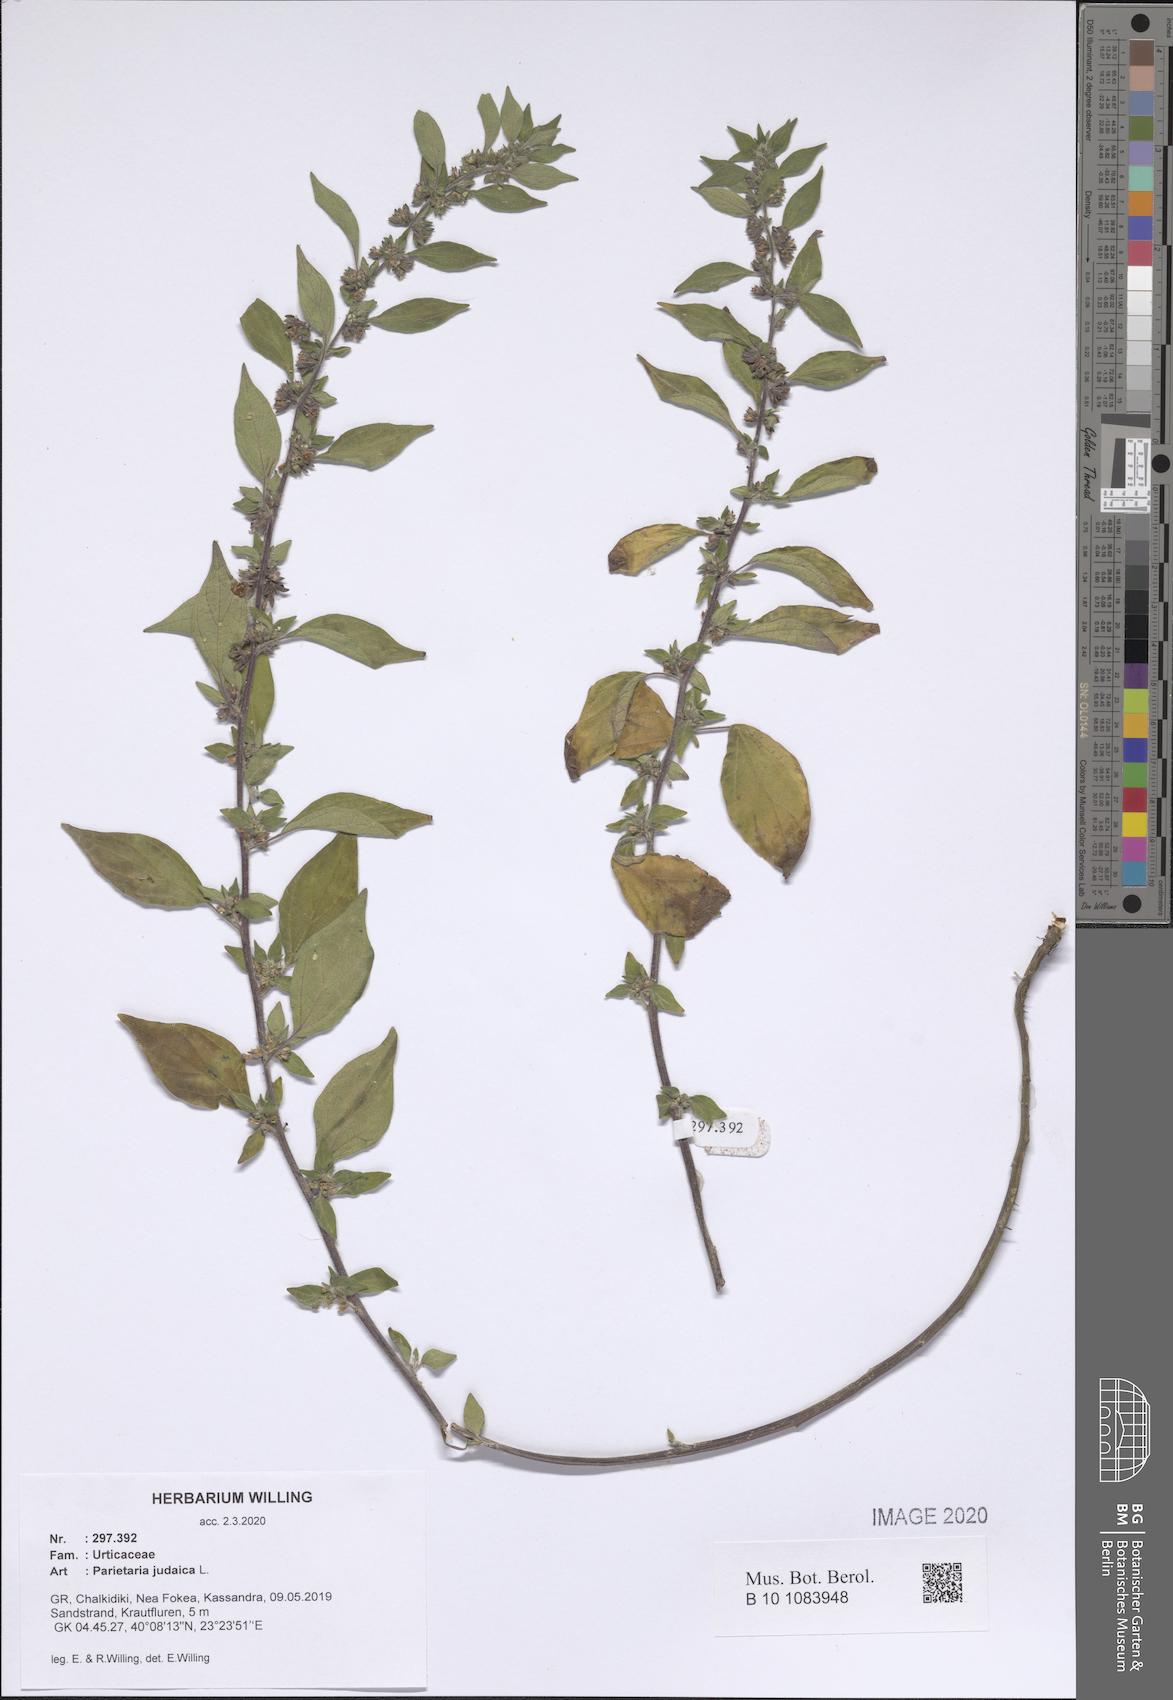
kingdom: Plantae
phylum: Tracheophyta
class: Magnoliopsida
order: Rosales
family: Urticaceae
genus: Parietaria
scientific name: Parietaria judaica
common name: Pellitory-of-the-wall
